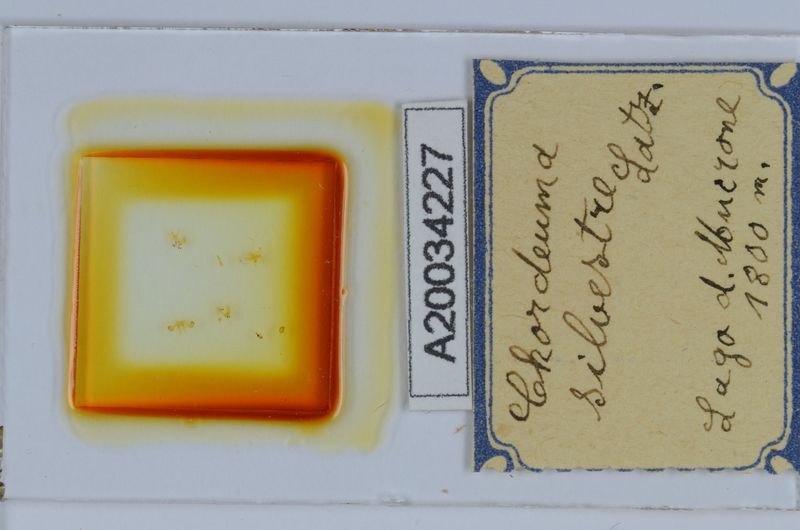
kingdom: Animalia
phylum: Arthropoda
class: Diplopoda
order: Chordeumatida
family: Chordeumatidae
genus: Chordeuma
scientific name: Chordeuma sylvestre
